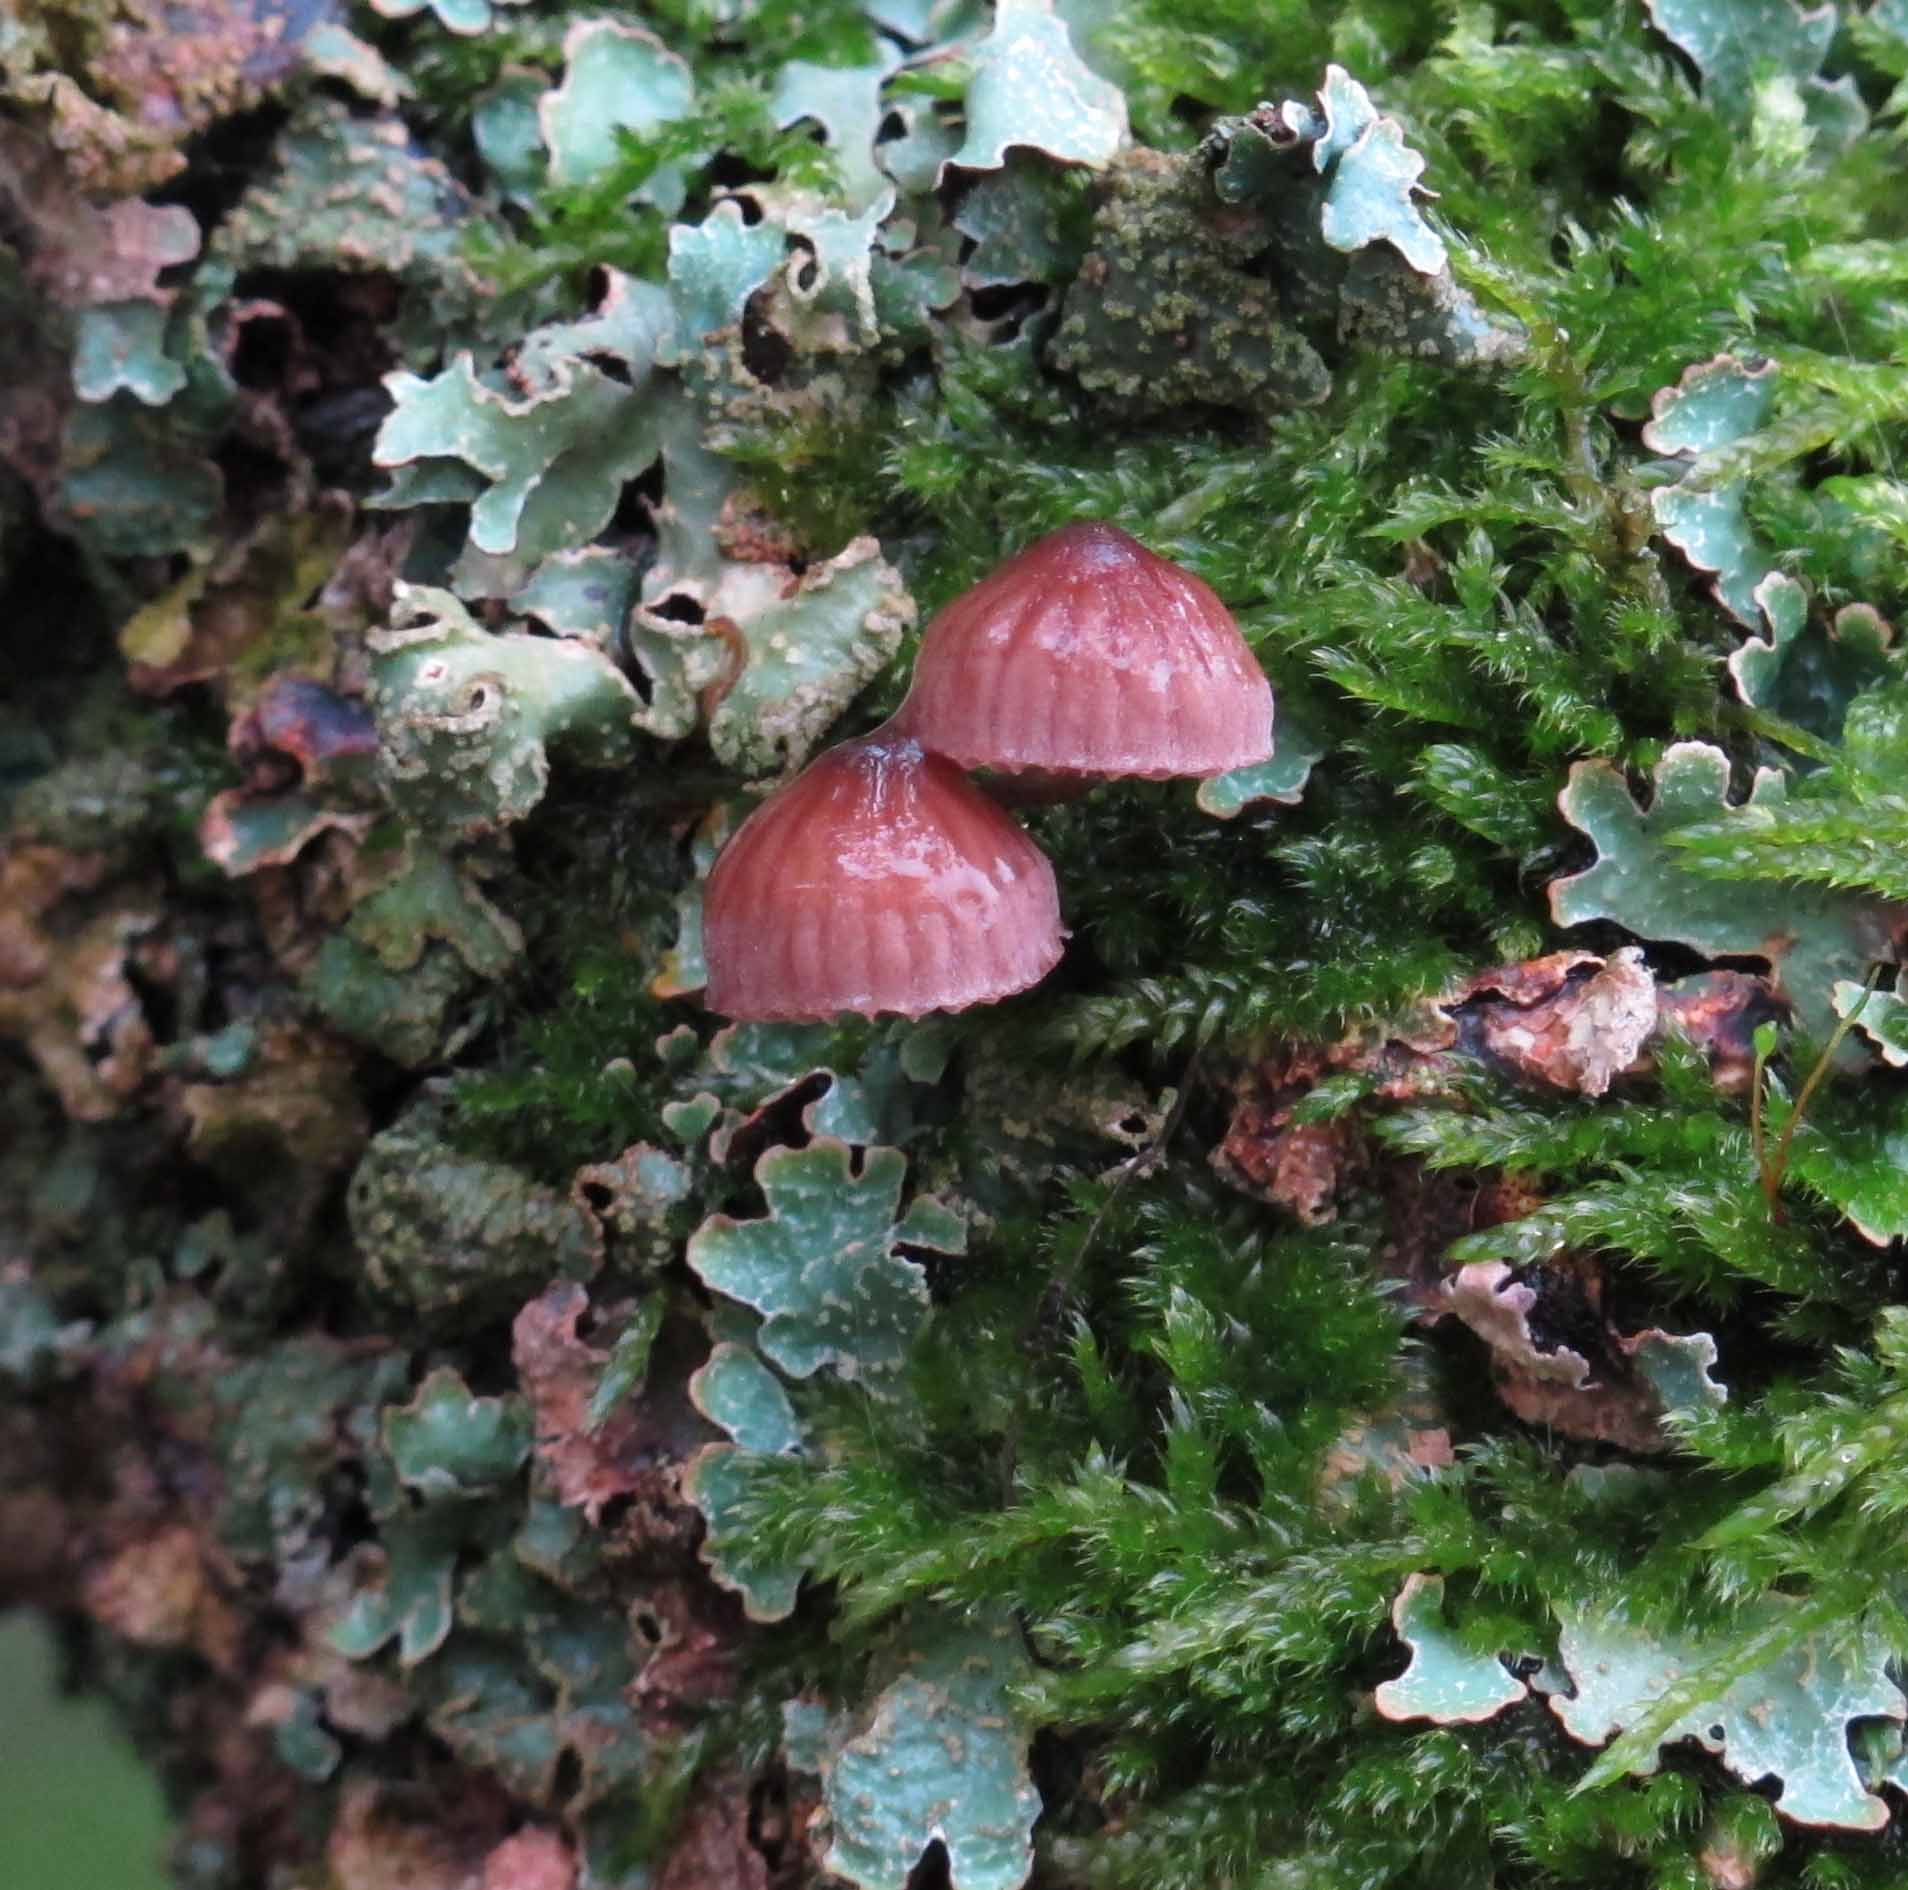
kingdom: Fungi
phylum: Basidiomycota
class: Agaricomycetes
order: Agaricales
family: Mycenaceae
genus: Mycena
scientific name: Mycena meliigena
